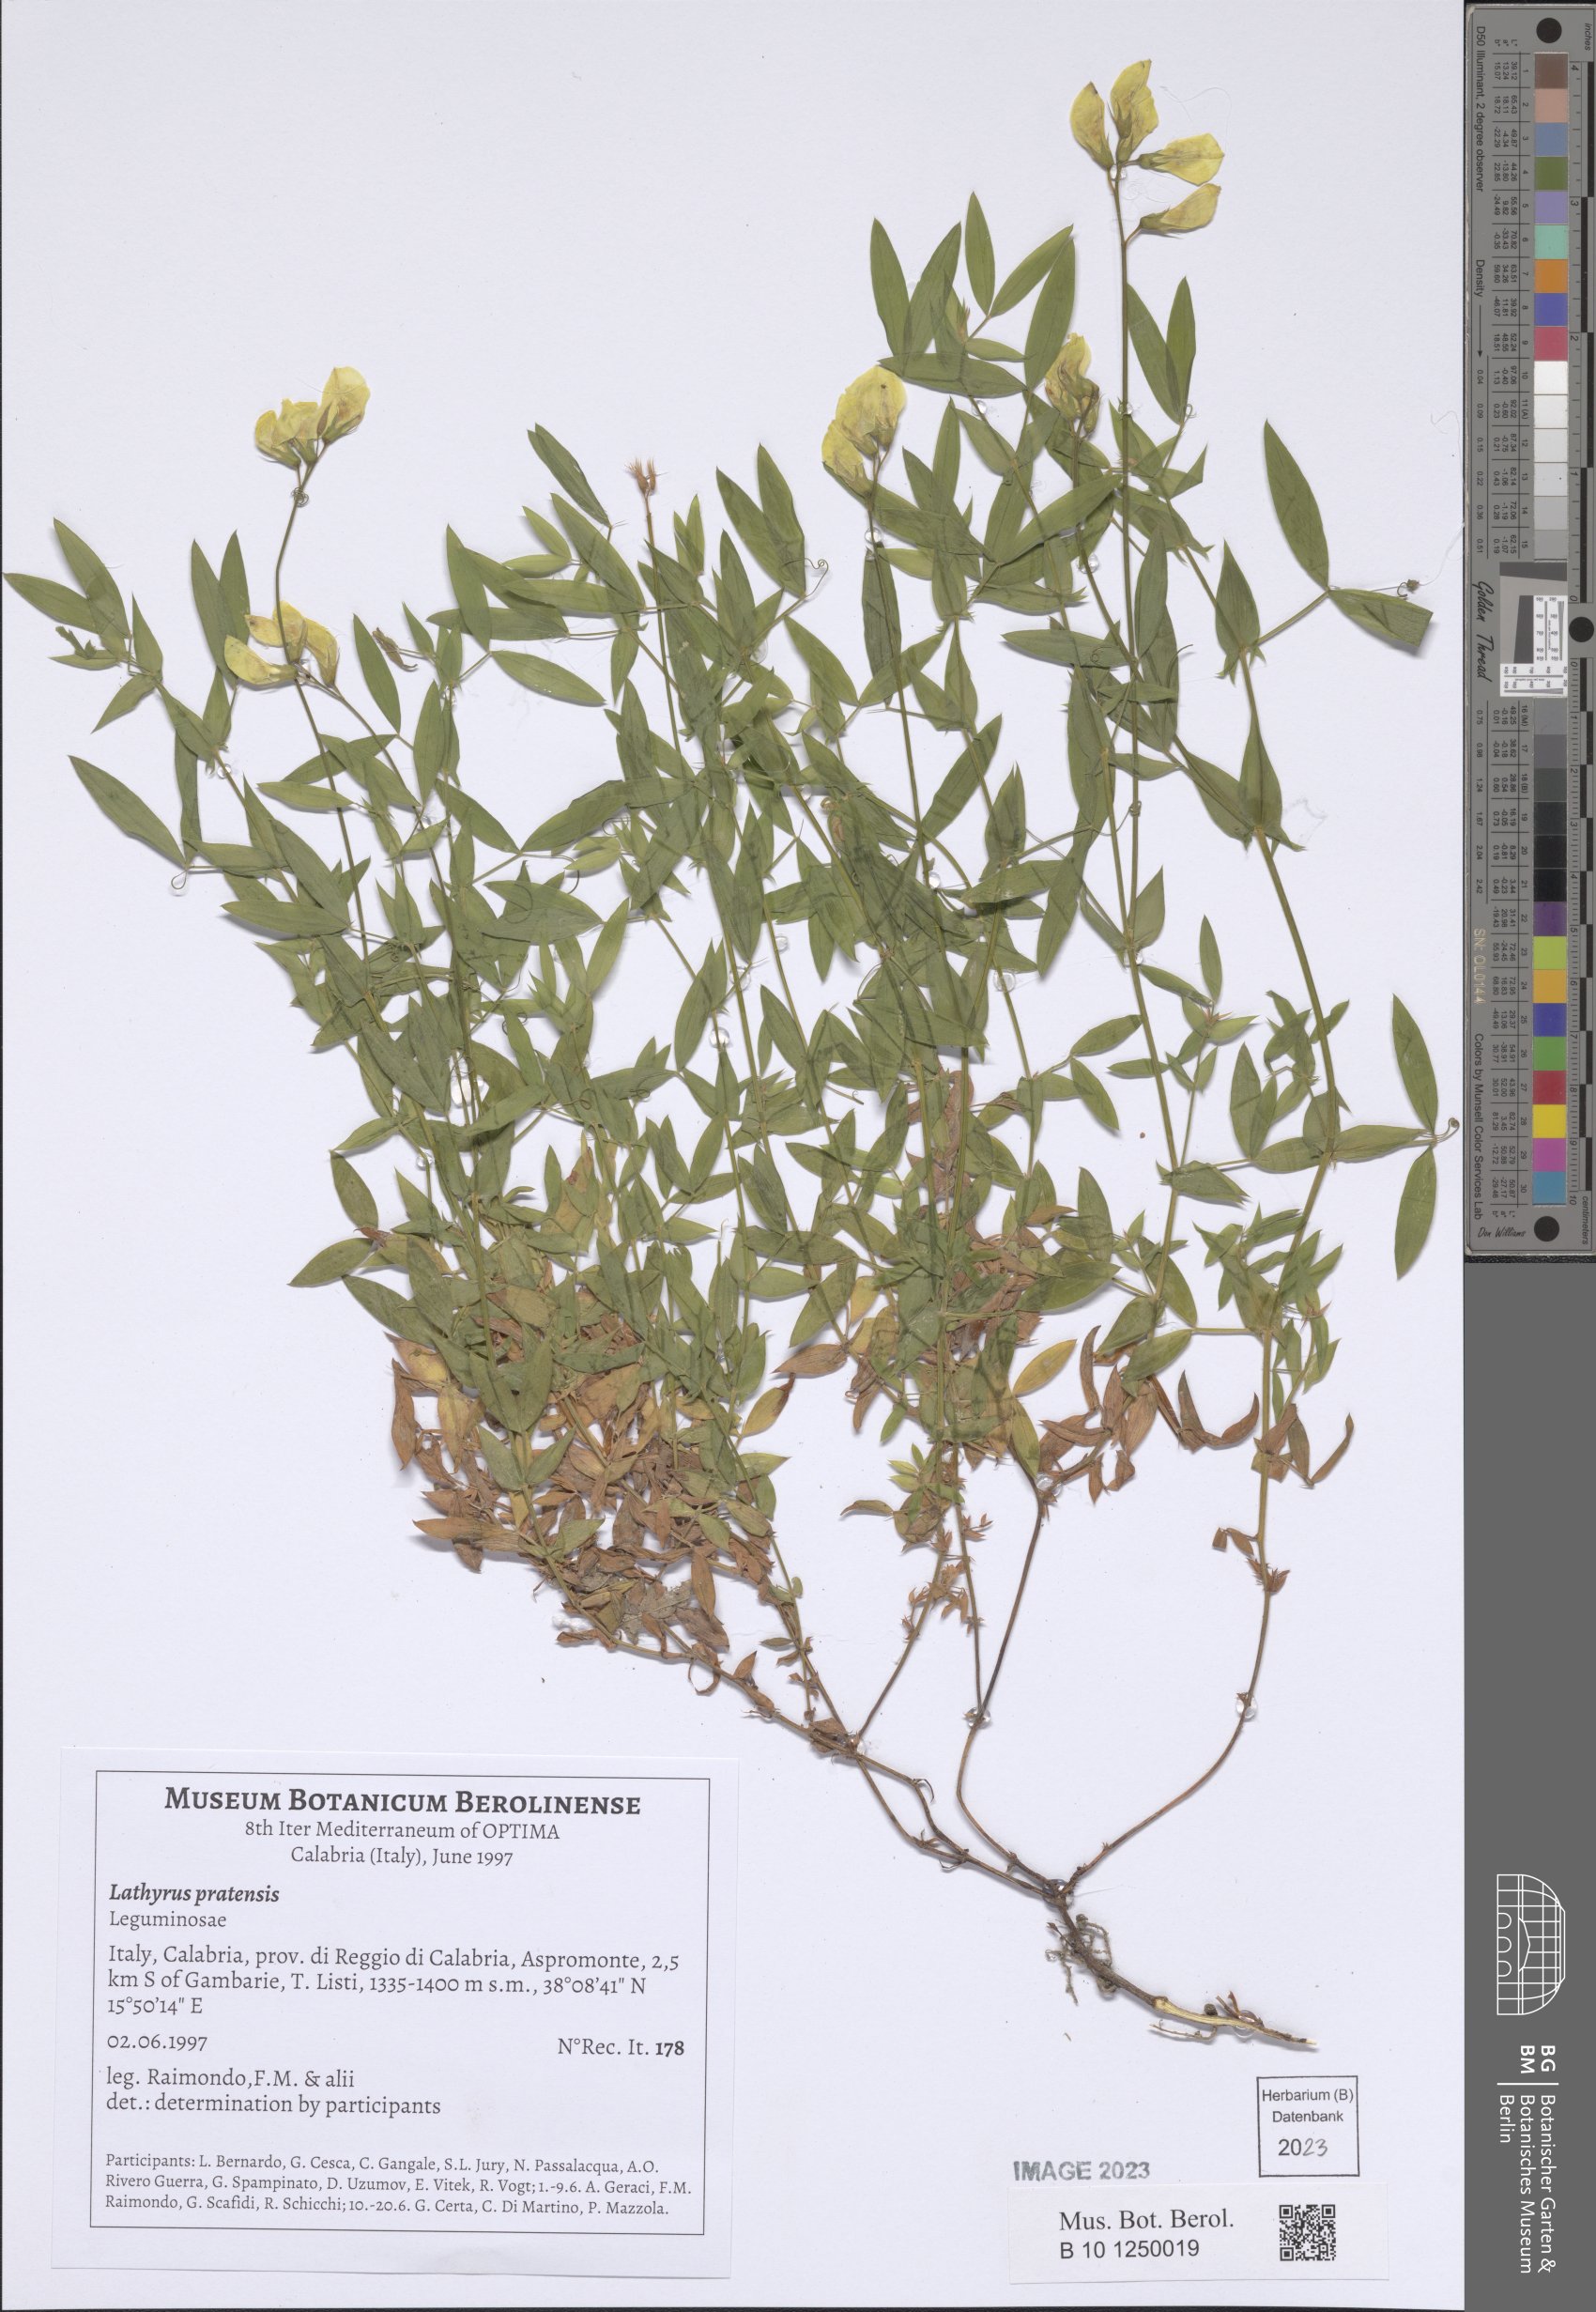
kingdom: Plantae
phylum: Tracheophyta
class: Magnoliopsida
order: Fabales
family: Fabaceae
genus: Lathyrus
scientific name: Lathyrus pratensis
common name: Meadow vetchling
